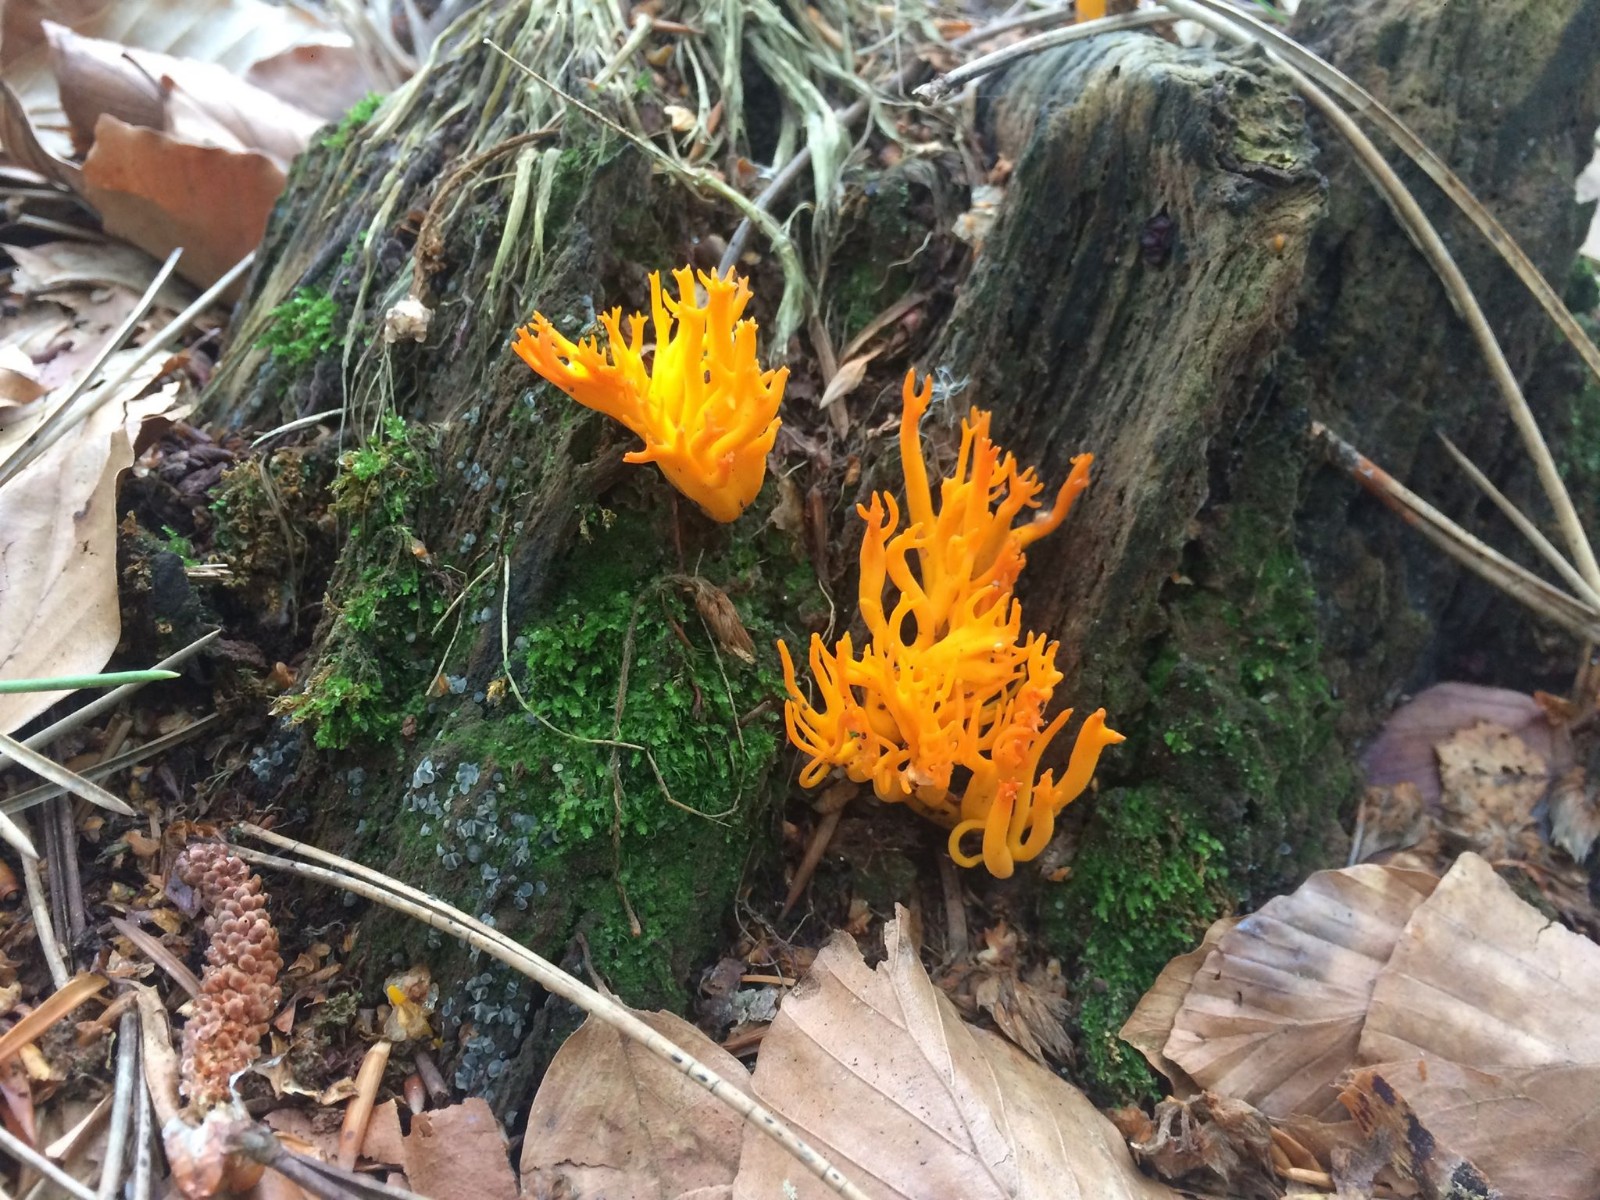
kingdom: Fungi
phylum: Basidiomycota
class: Dacrymycetes
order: Dacrymycetales
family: Dacrymycetaceae
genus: Calocera
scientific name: Calocera viscosa
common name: almindelig guldgaffel
